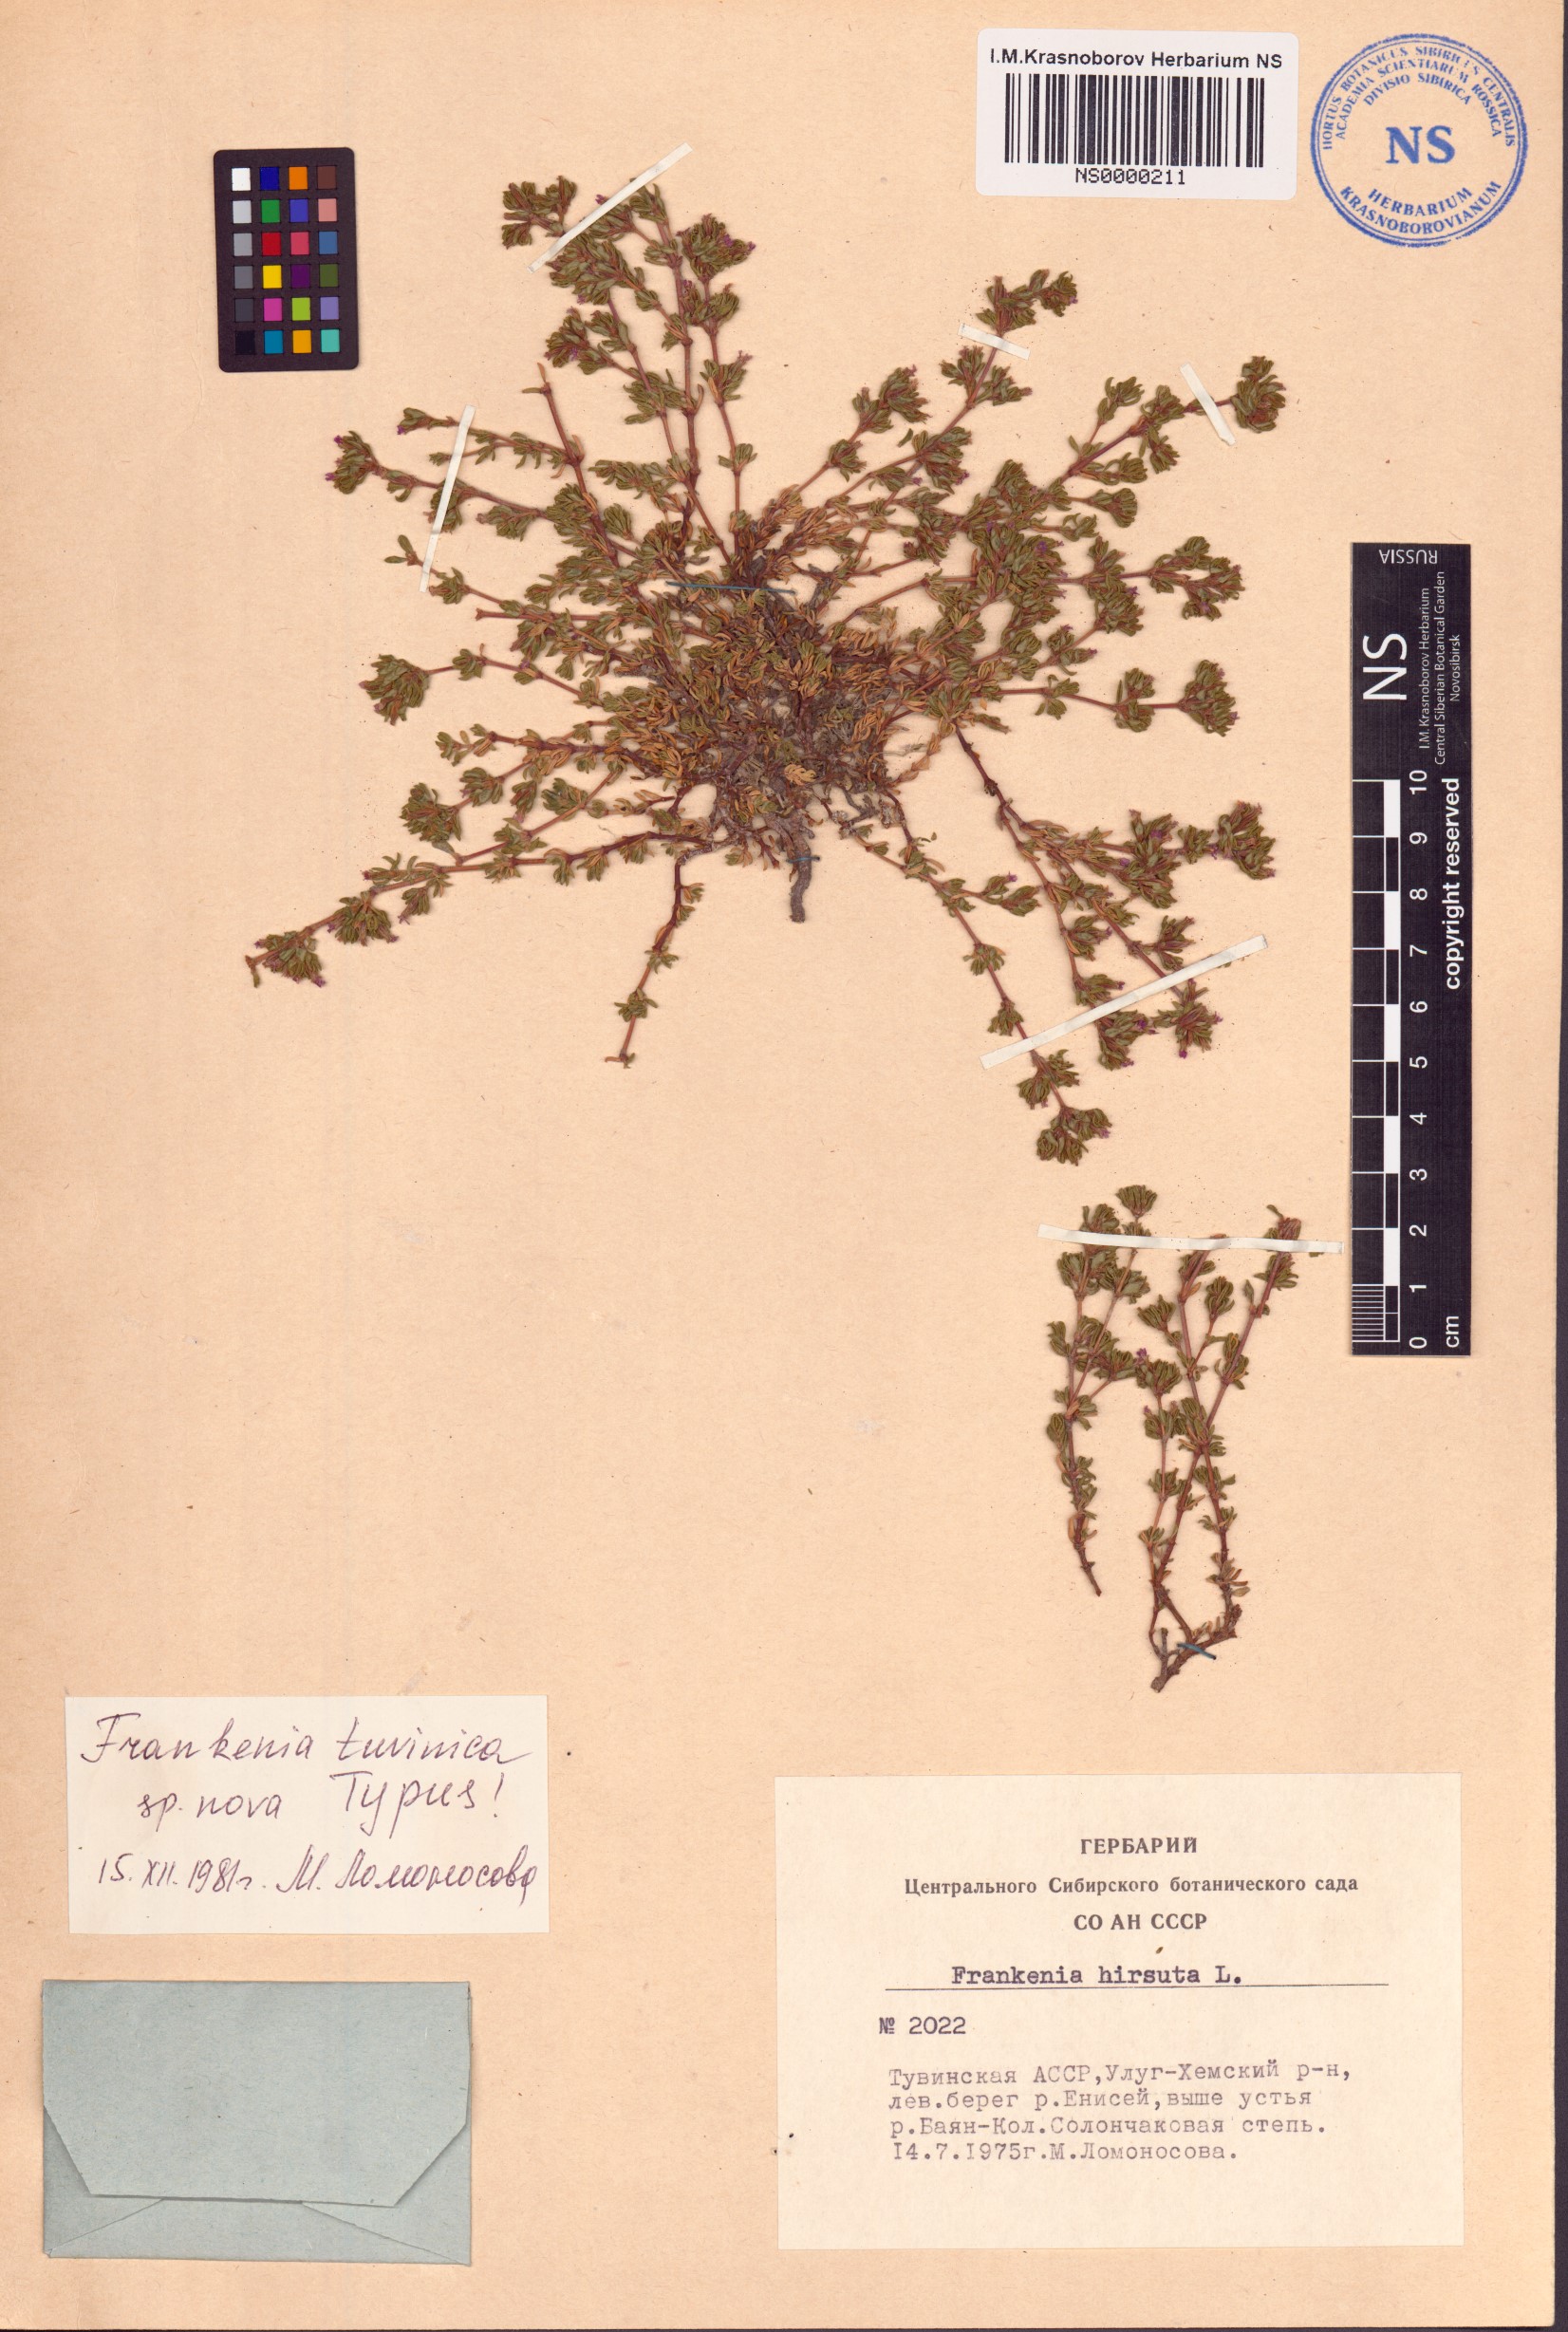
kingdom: Plantae
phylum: Tracheophyta
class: Magnoliopsida
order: Caryophyllales
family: Frankeniaceae
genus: Frankenia
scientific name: Frankenia tuvinica
